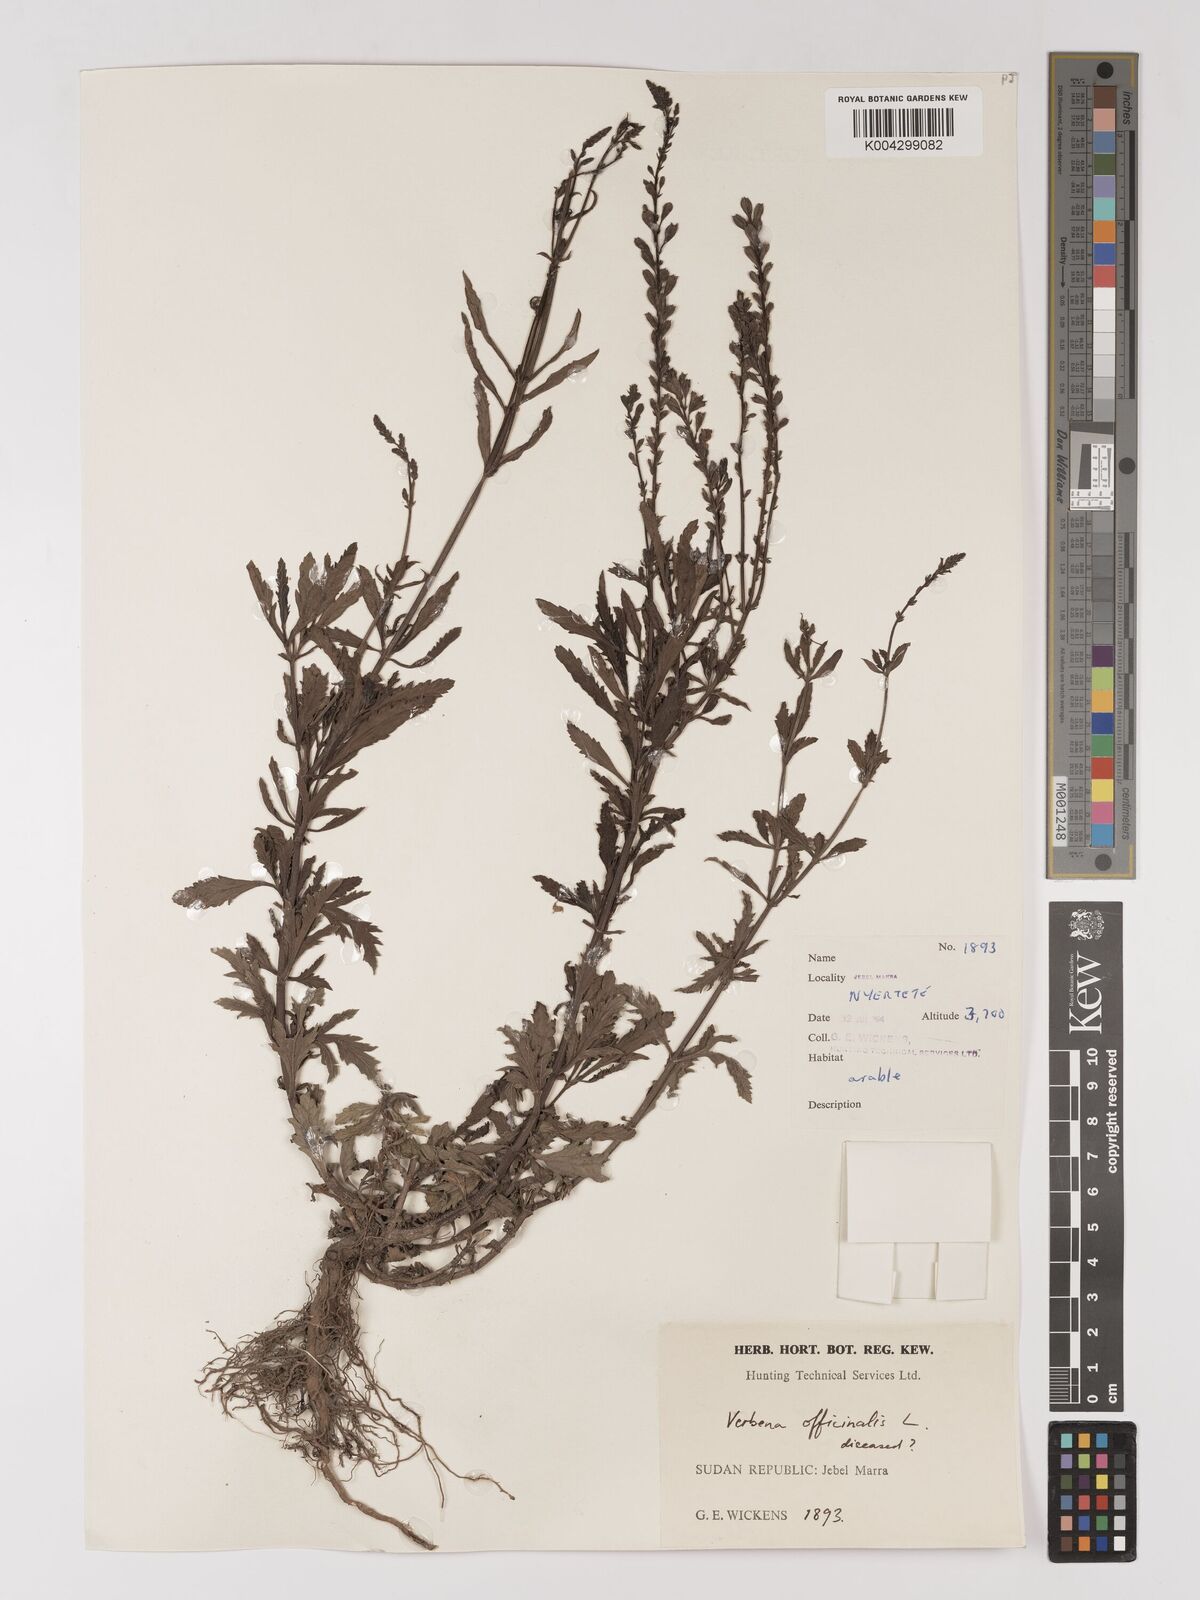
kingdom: Plantae
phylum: Tracheophyta
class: Magnoliopsida
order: Lamiales
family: Verbenaceae
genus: Verbena
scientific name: Verbena officinalis
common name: Vervain
